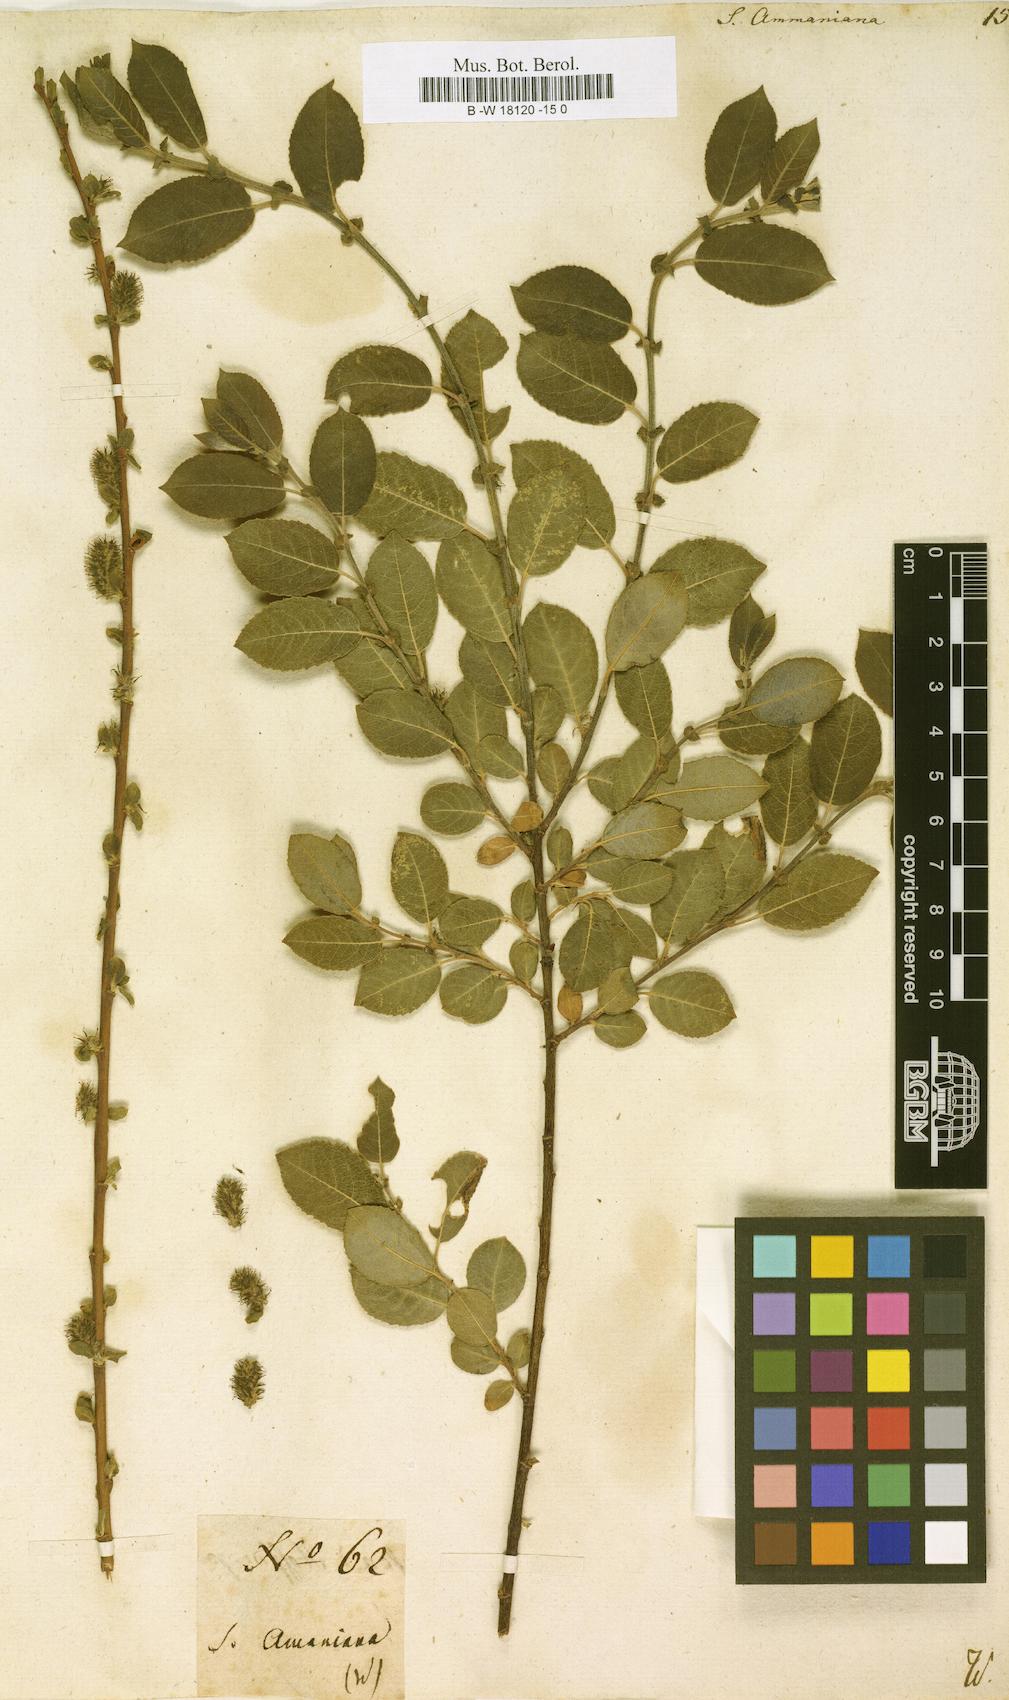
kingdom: Plantae
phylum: Tracheophyta
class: Magnoliopsida
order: Malpighiales
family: Salicaceae
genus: Salix
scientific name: Salix myrsinifolia
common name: Dark-leaved willow
